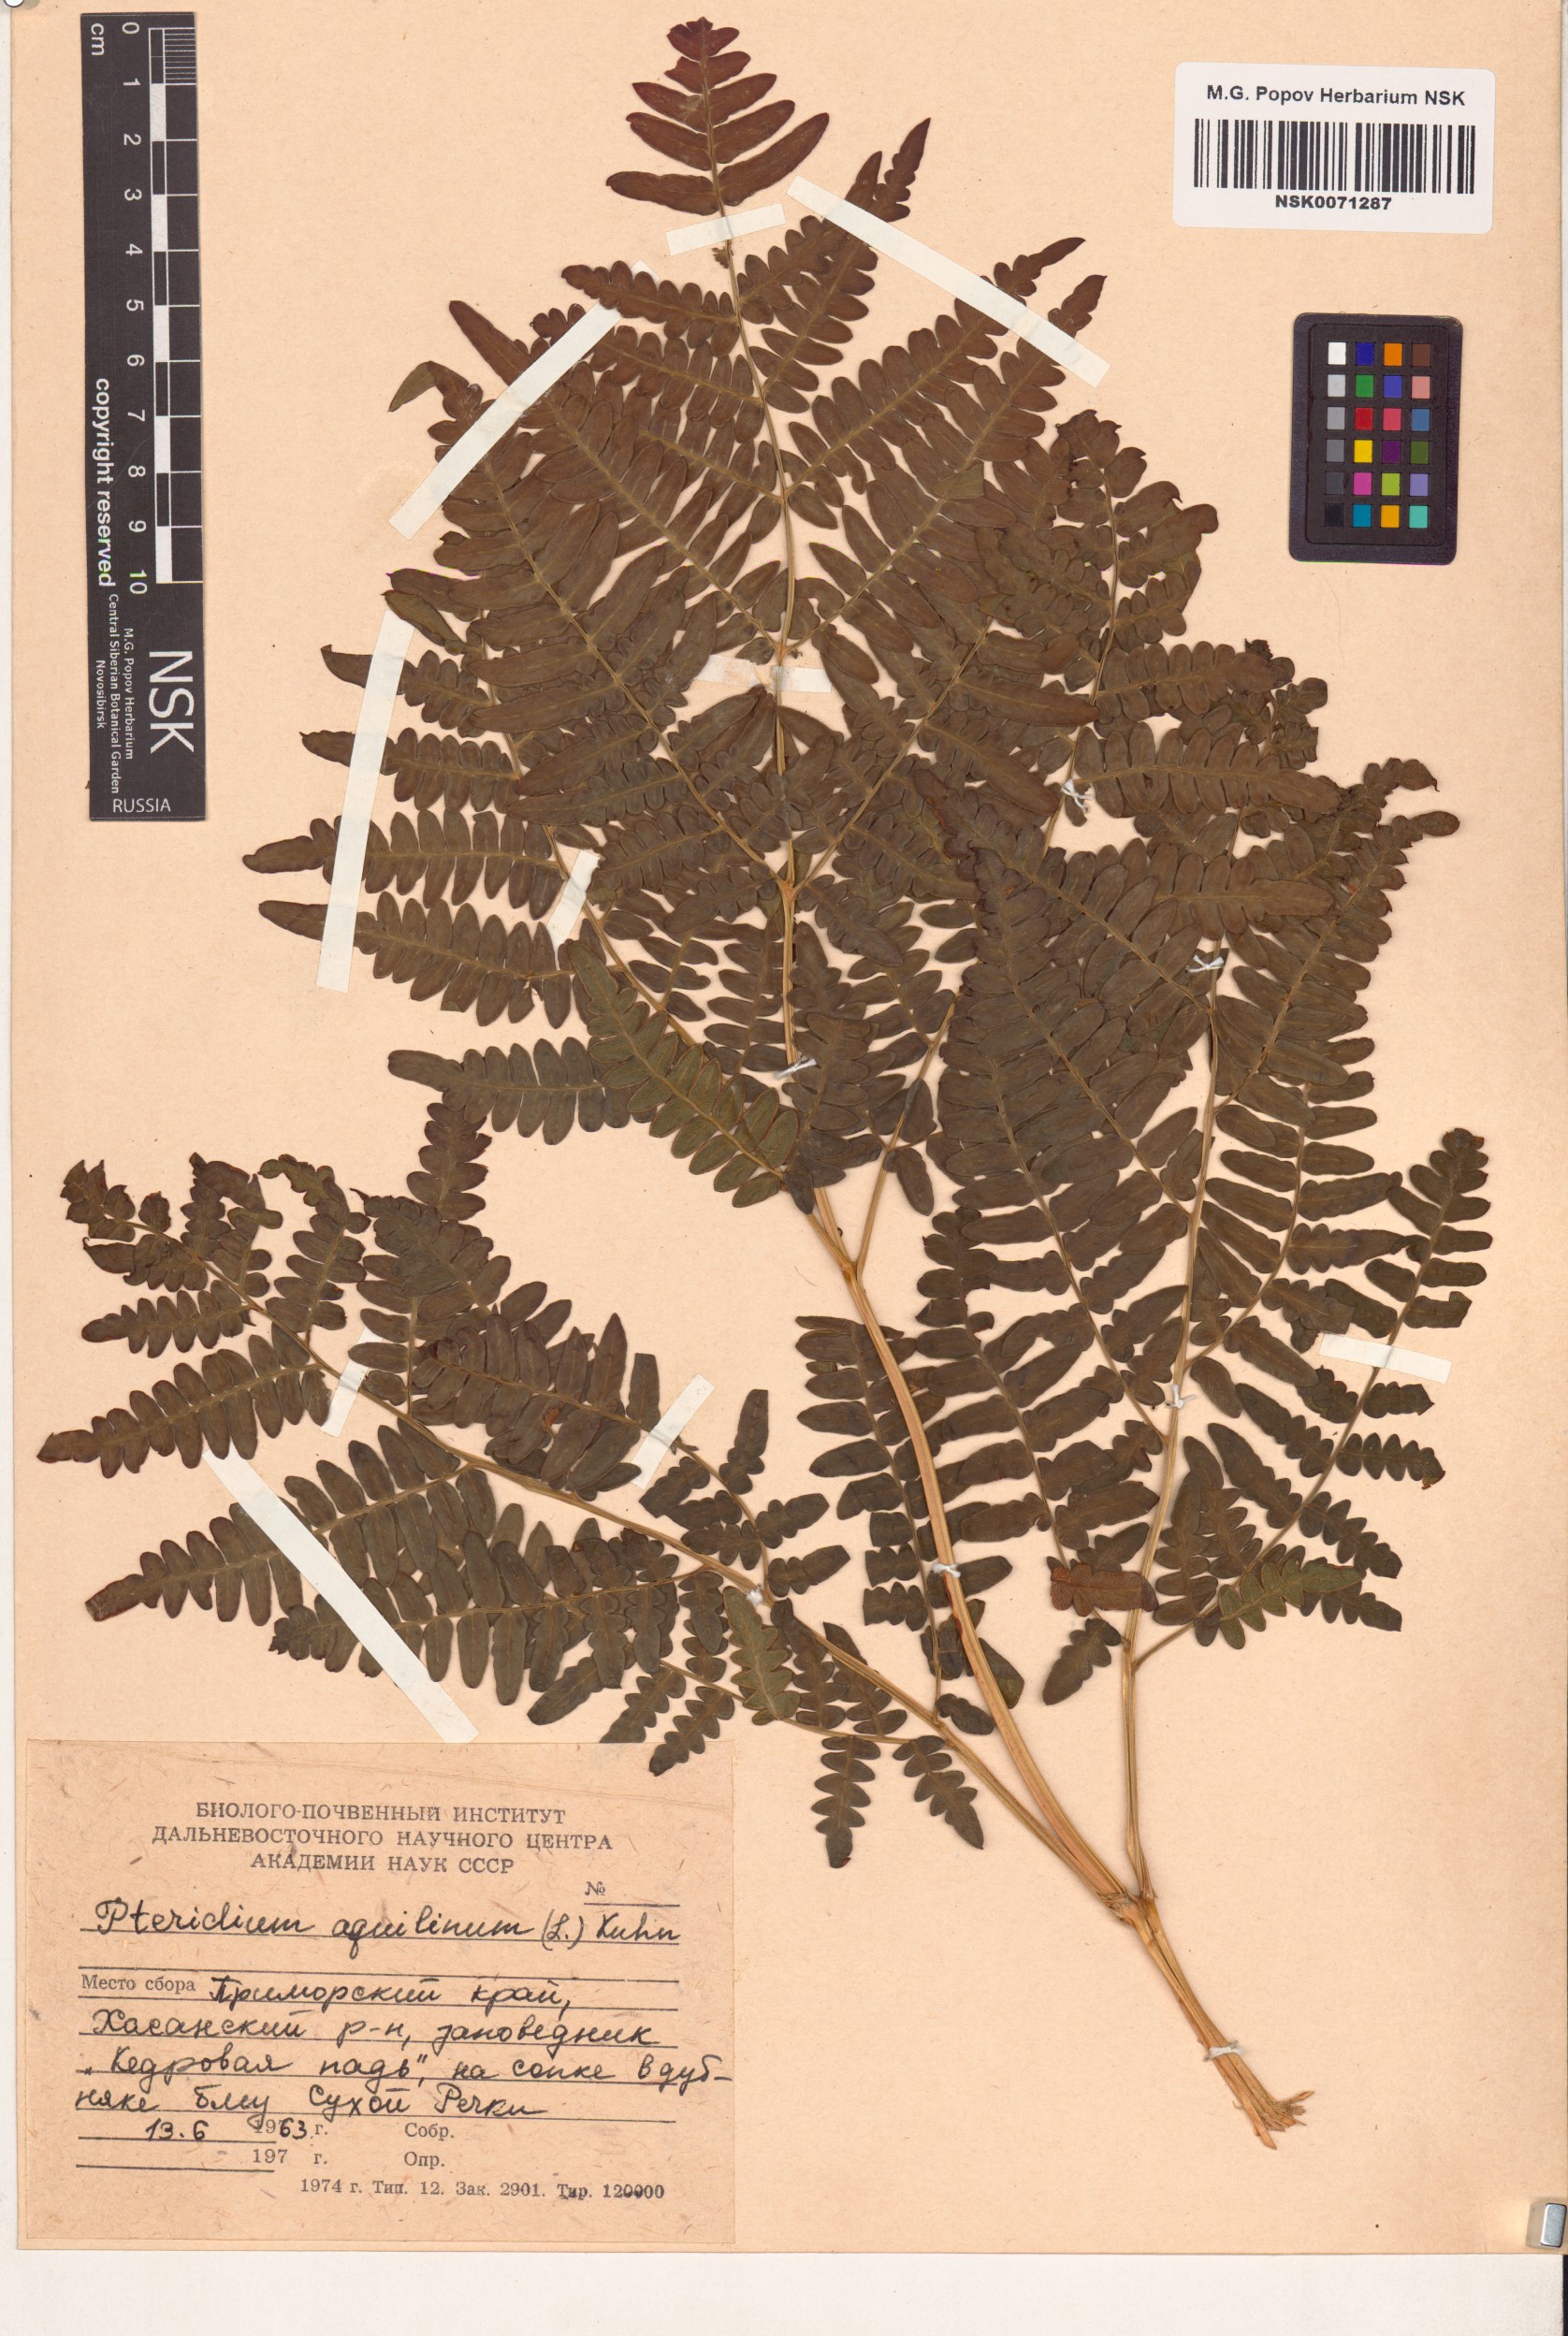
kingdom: Plantae
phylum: Tracheophyta
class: Polypodiopsida
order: Polypodiales
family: Dennstaedtiaceae
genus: Pteridium
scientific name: Pteridium aquilinum
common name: Bracken
